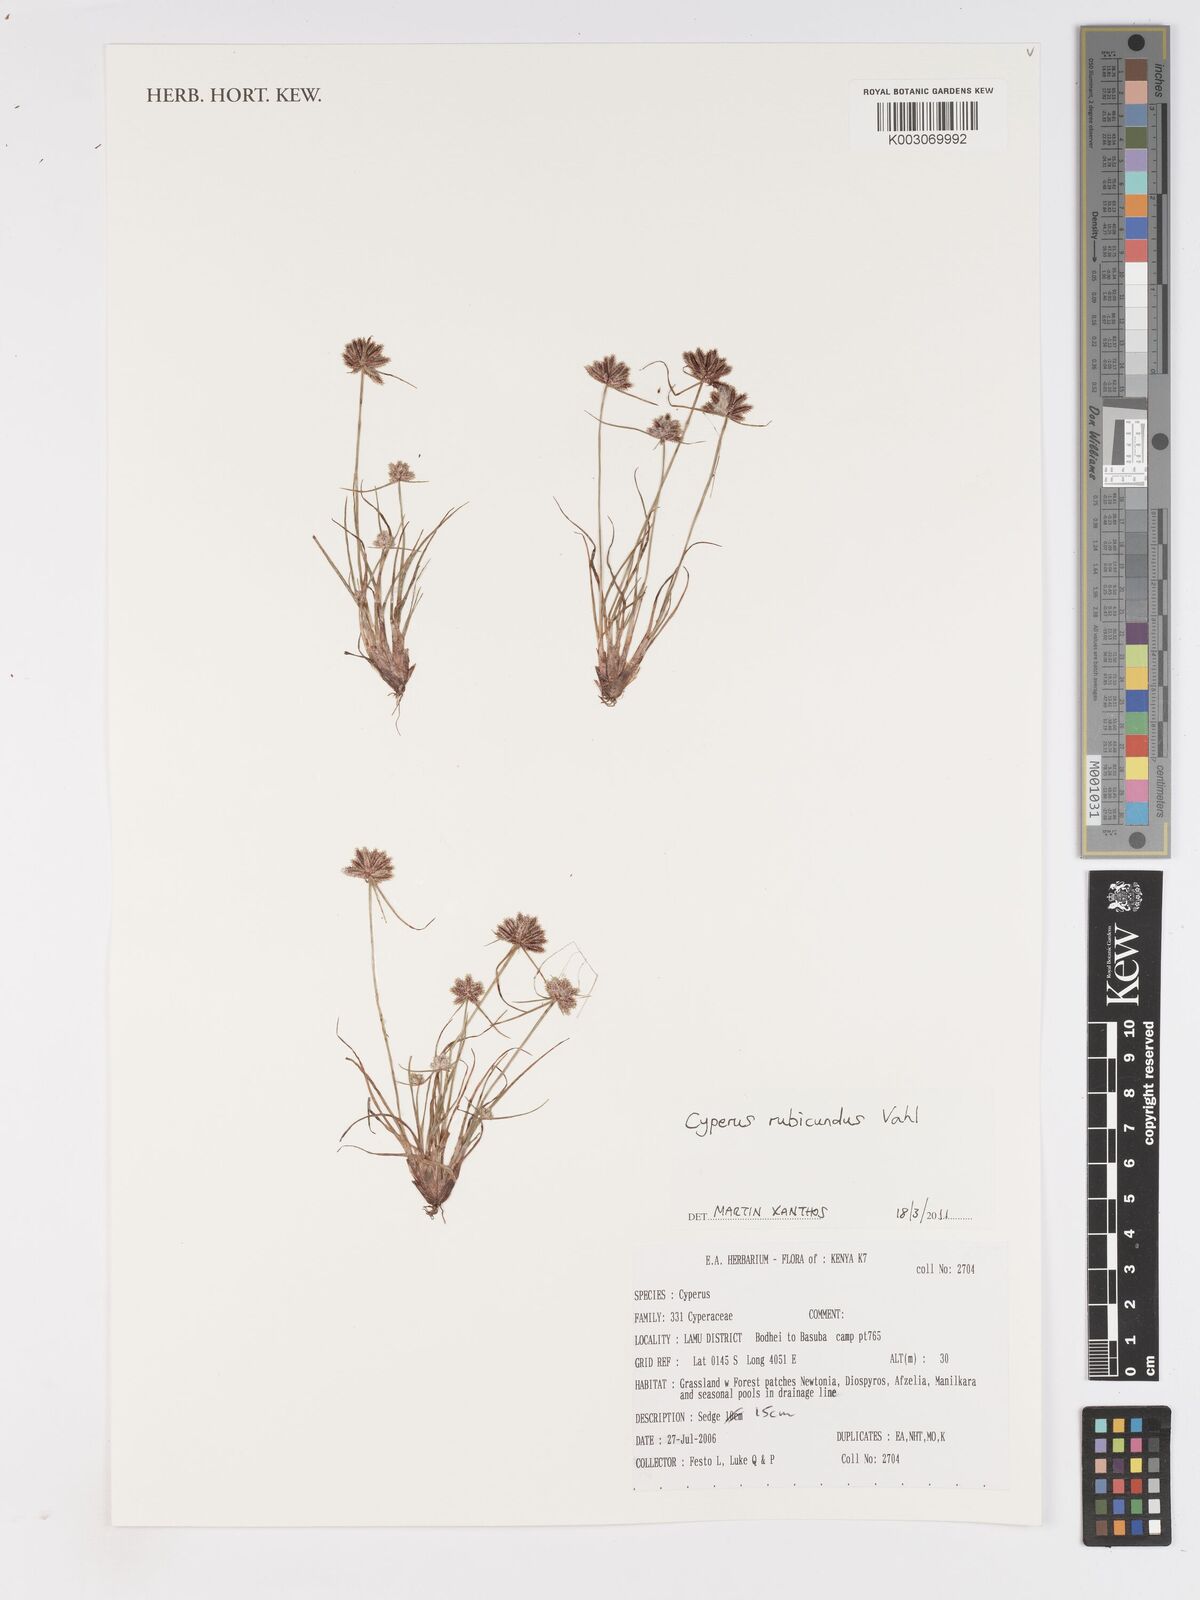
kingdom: Plantae
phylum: Tracheophyta
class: Liliopsida
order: Poales
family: Cyperaceae
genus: Cyperus
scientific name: Cyperus rubicundus
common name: Coco-grass
